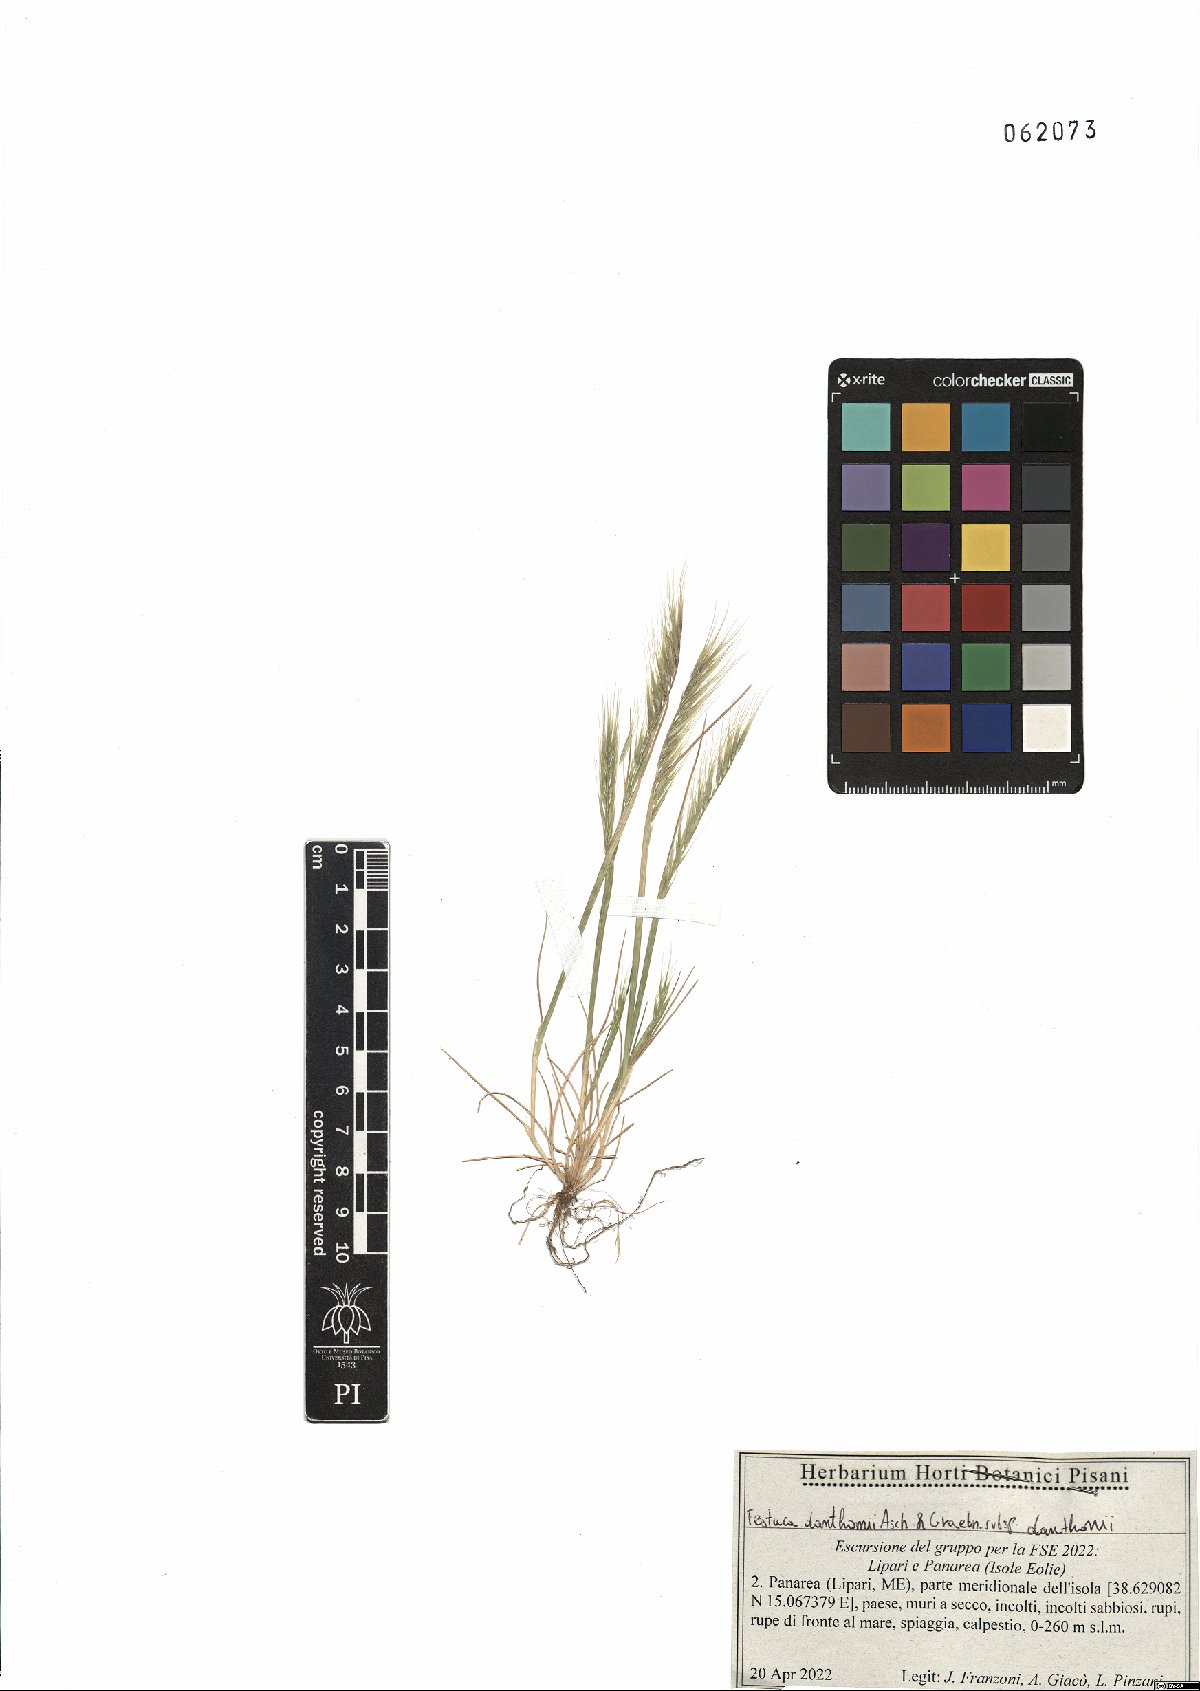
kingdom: Plantae
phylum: Tracheophyta
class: Liliopsida
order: Poales
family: Poaceae
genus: Festuca
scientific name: Festuca ambigua
